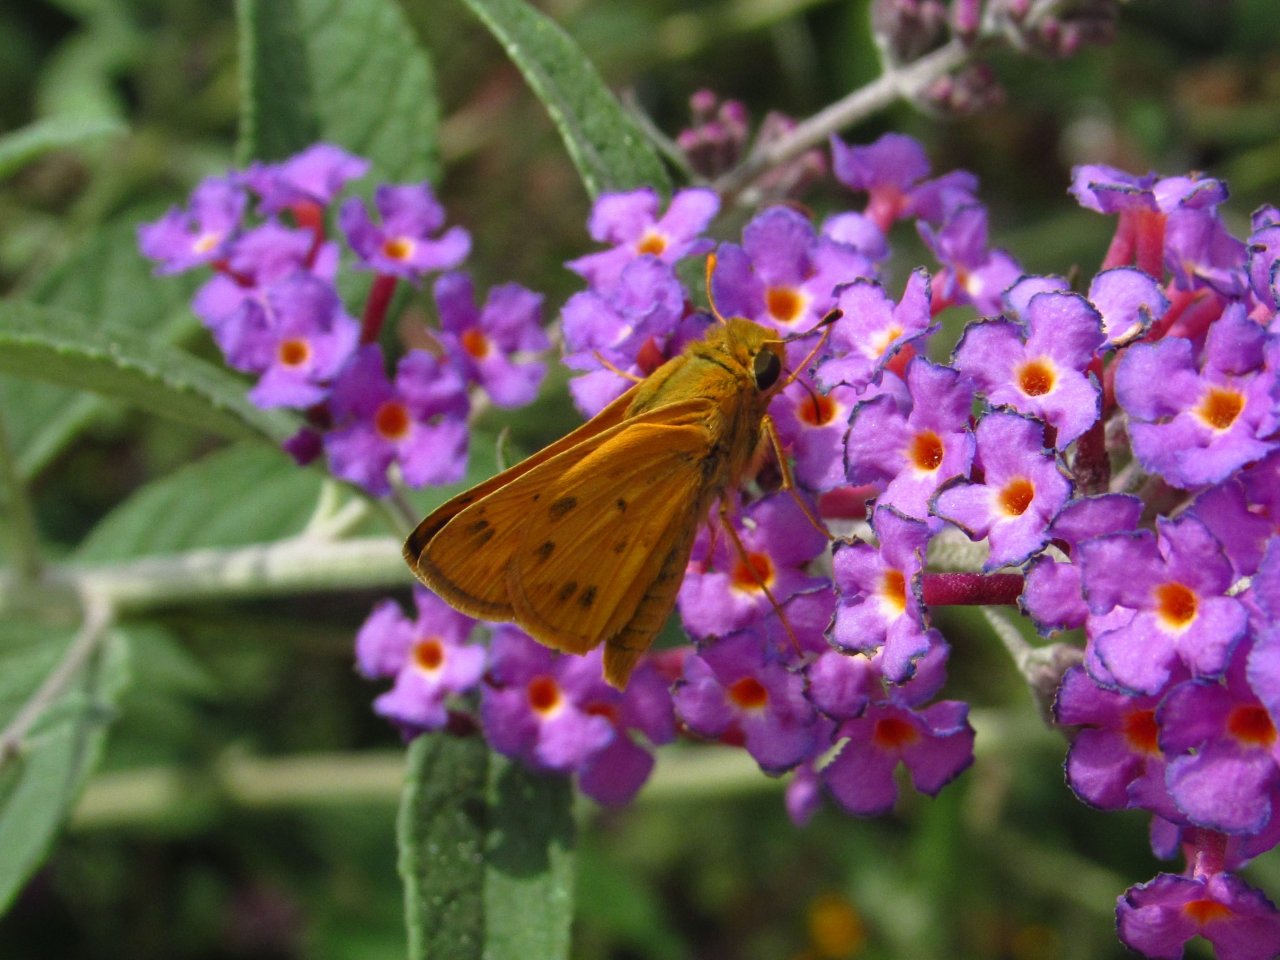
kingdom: Animalia
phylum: Arthropoda
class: Insecta
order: Lepidoptera
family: Hesperiidae
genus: Hylephila
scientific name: Hylephila phyleus
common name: Fiery Skipper
